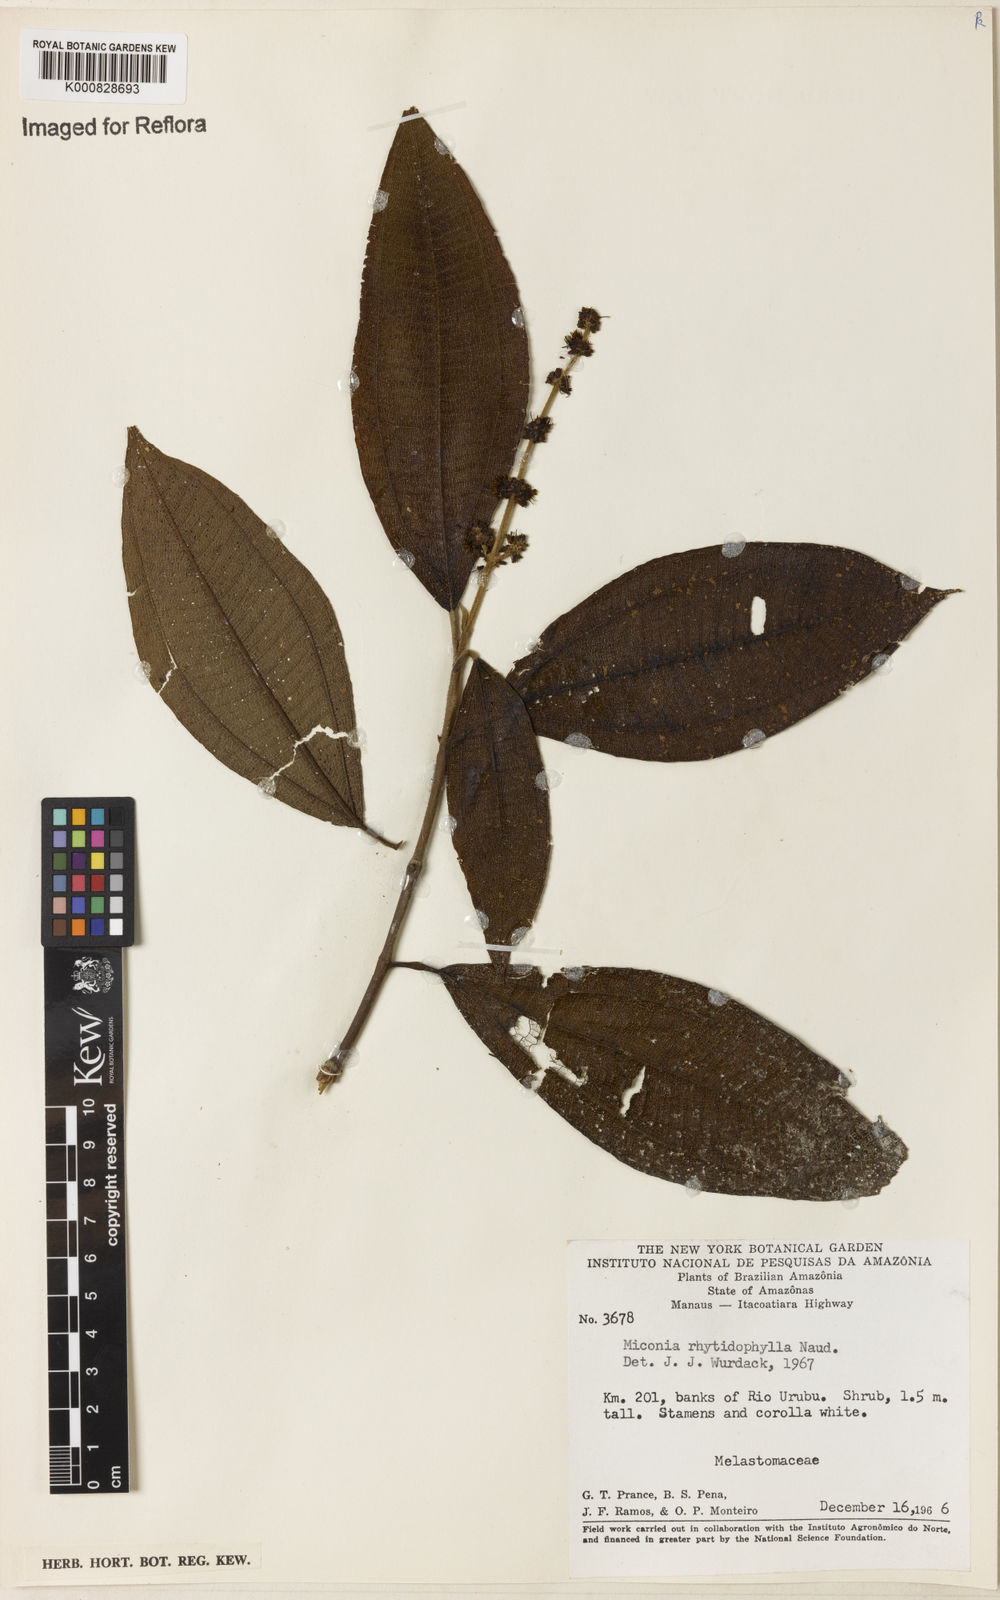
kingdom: Plantae
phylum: Tracheophyta
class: Magnoliopsida
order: Myrtales
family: Melastomataceae
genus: Miconia
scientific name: Miconia rhytidophylla
